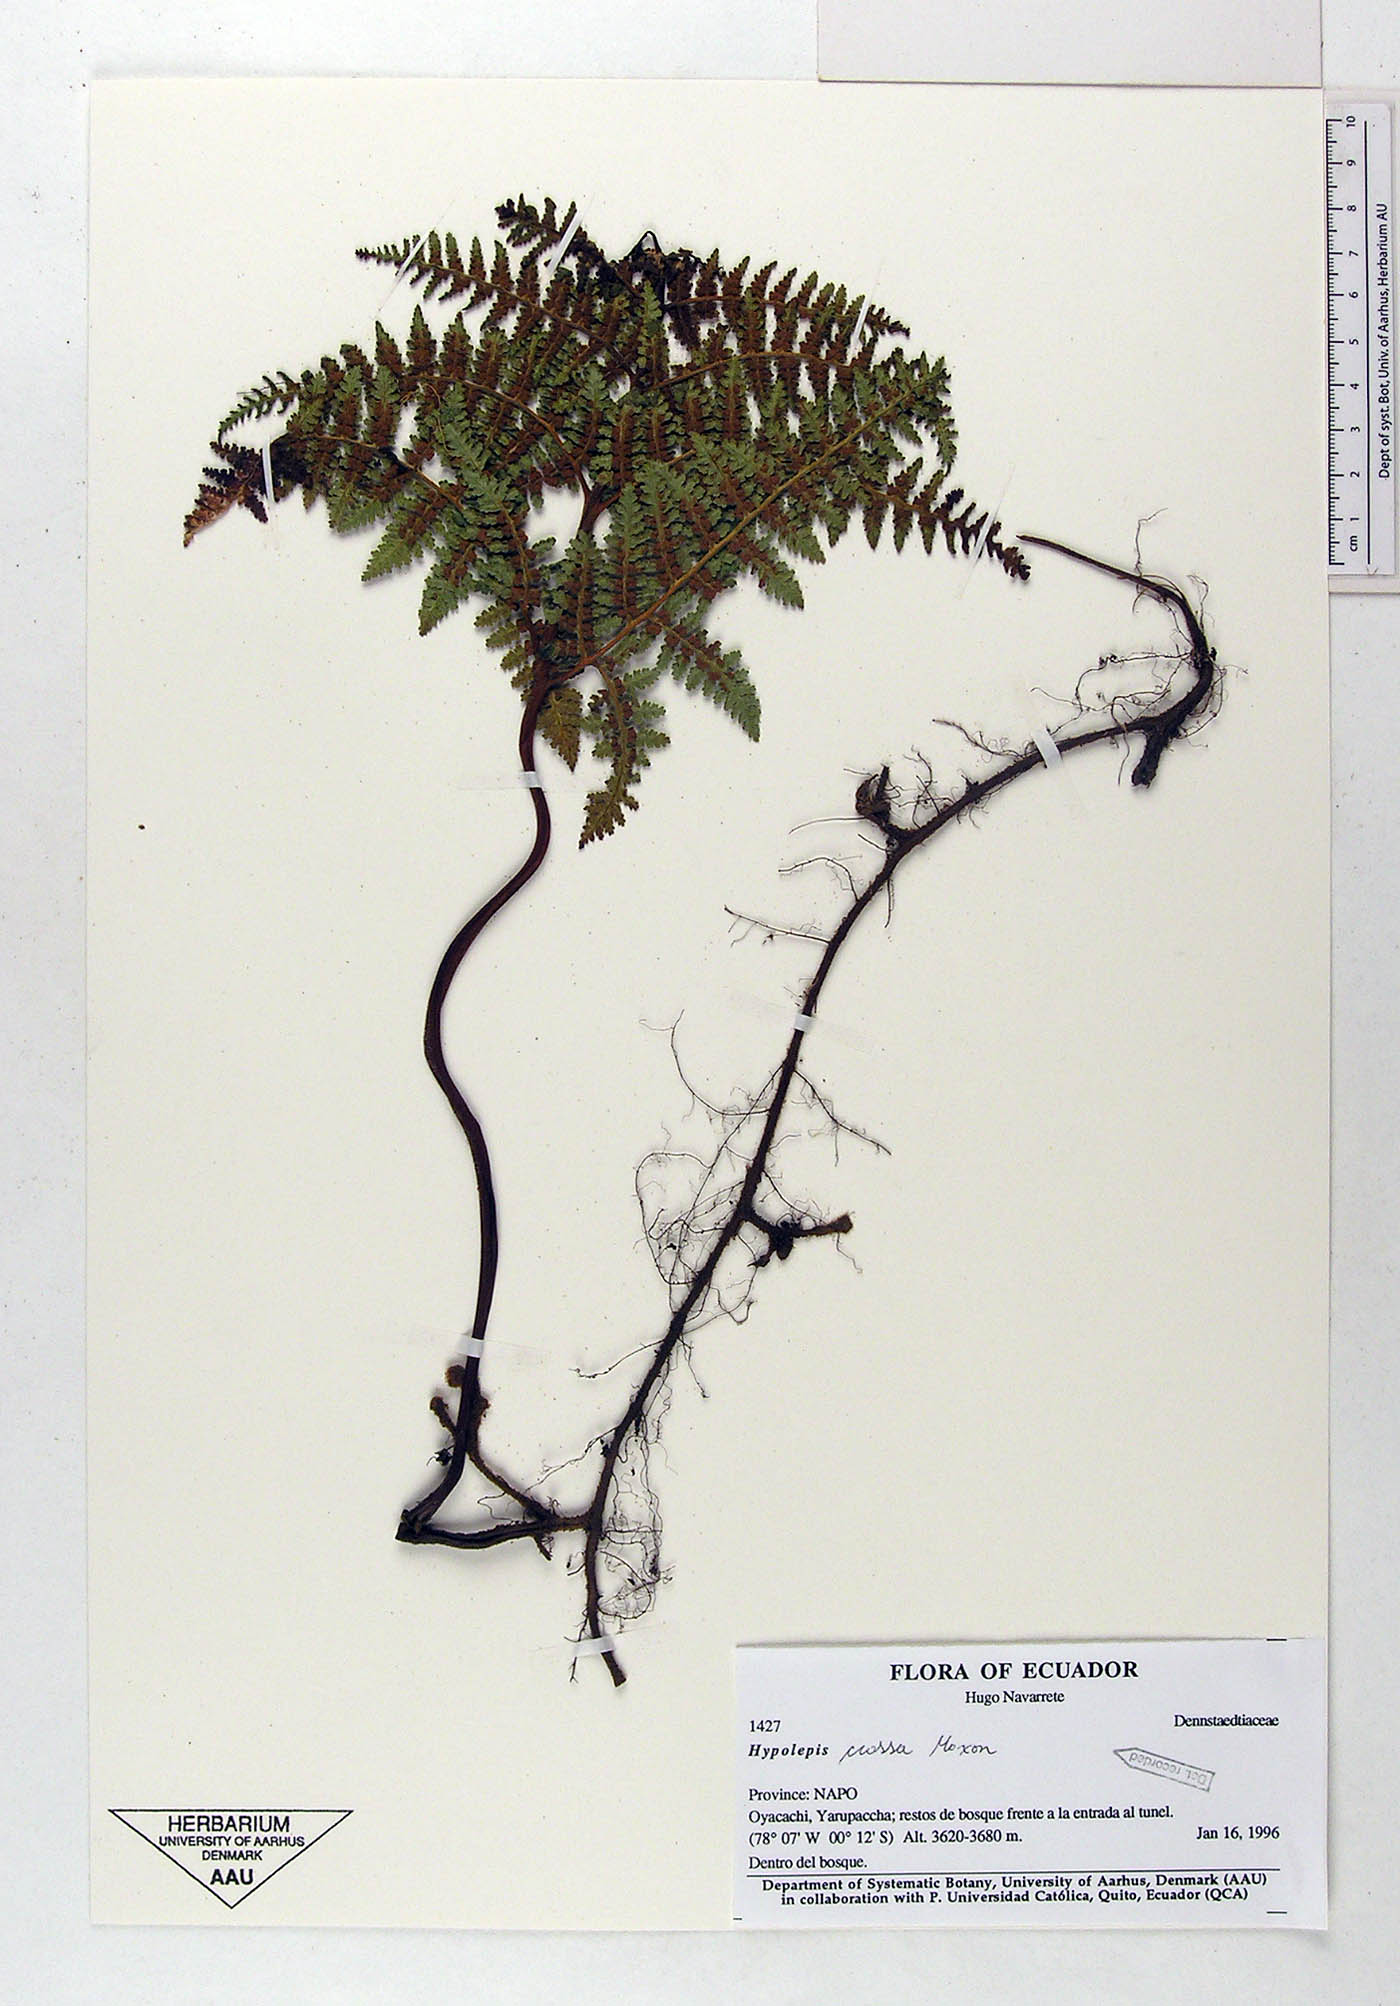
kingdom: Plantae
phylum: Tracheophyta
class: Polypodiopsida
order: Polypodiales
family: Dennstaedtiaceae
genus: Hypolepis
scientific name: Hypolepis crassa
